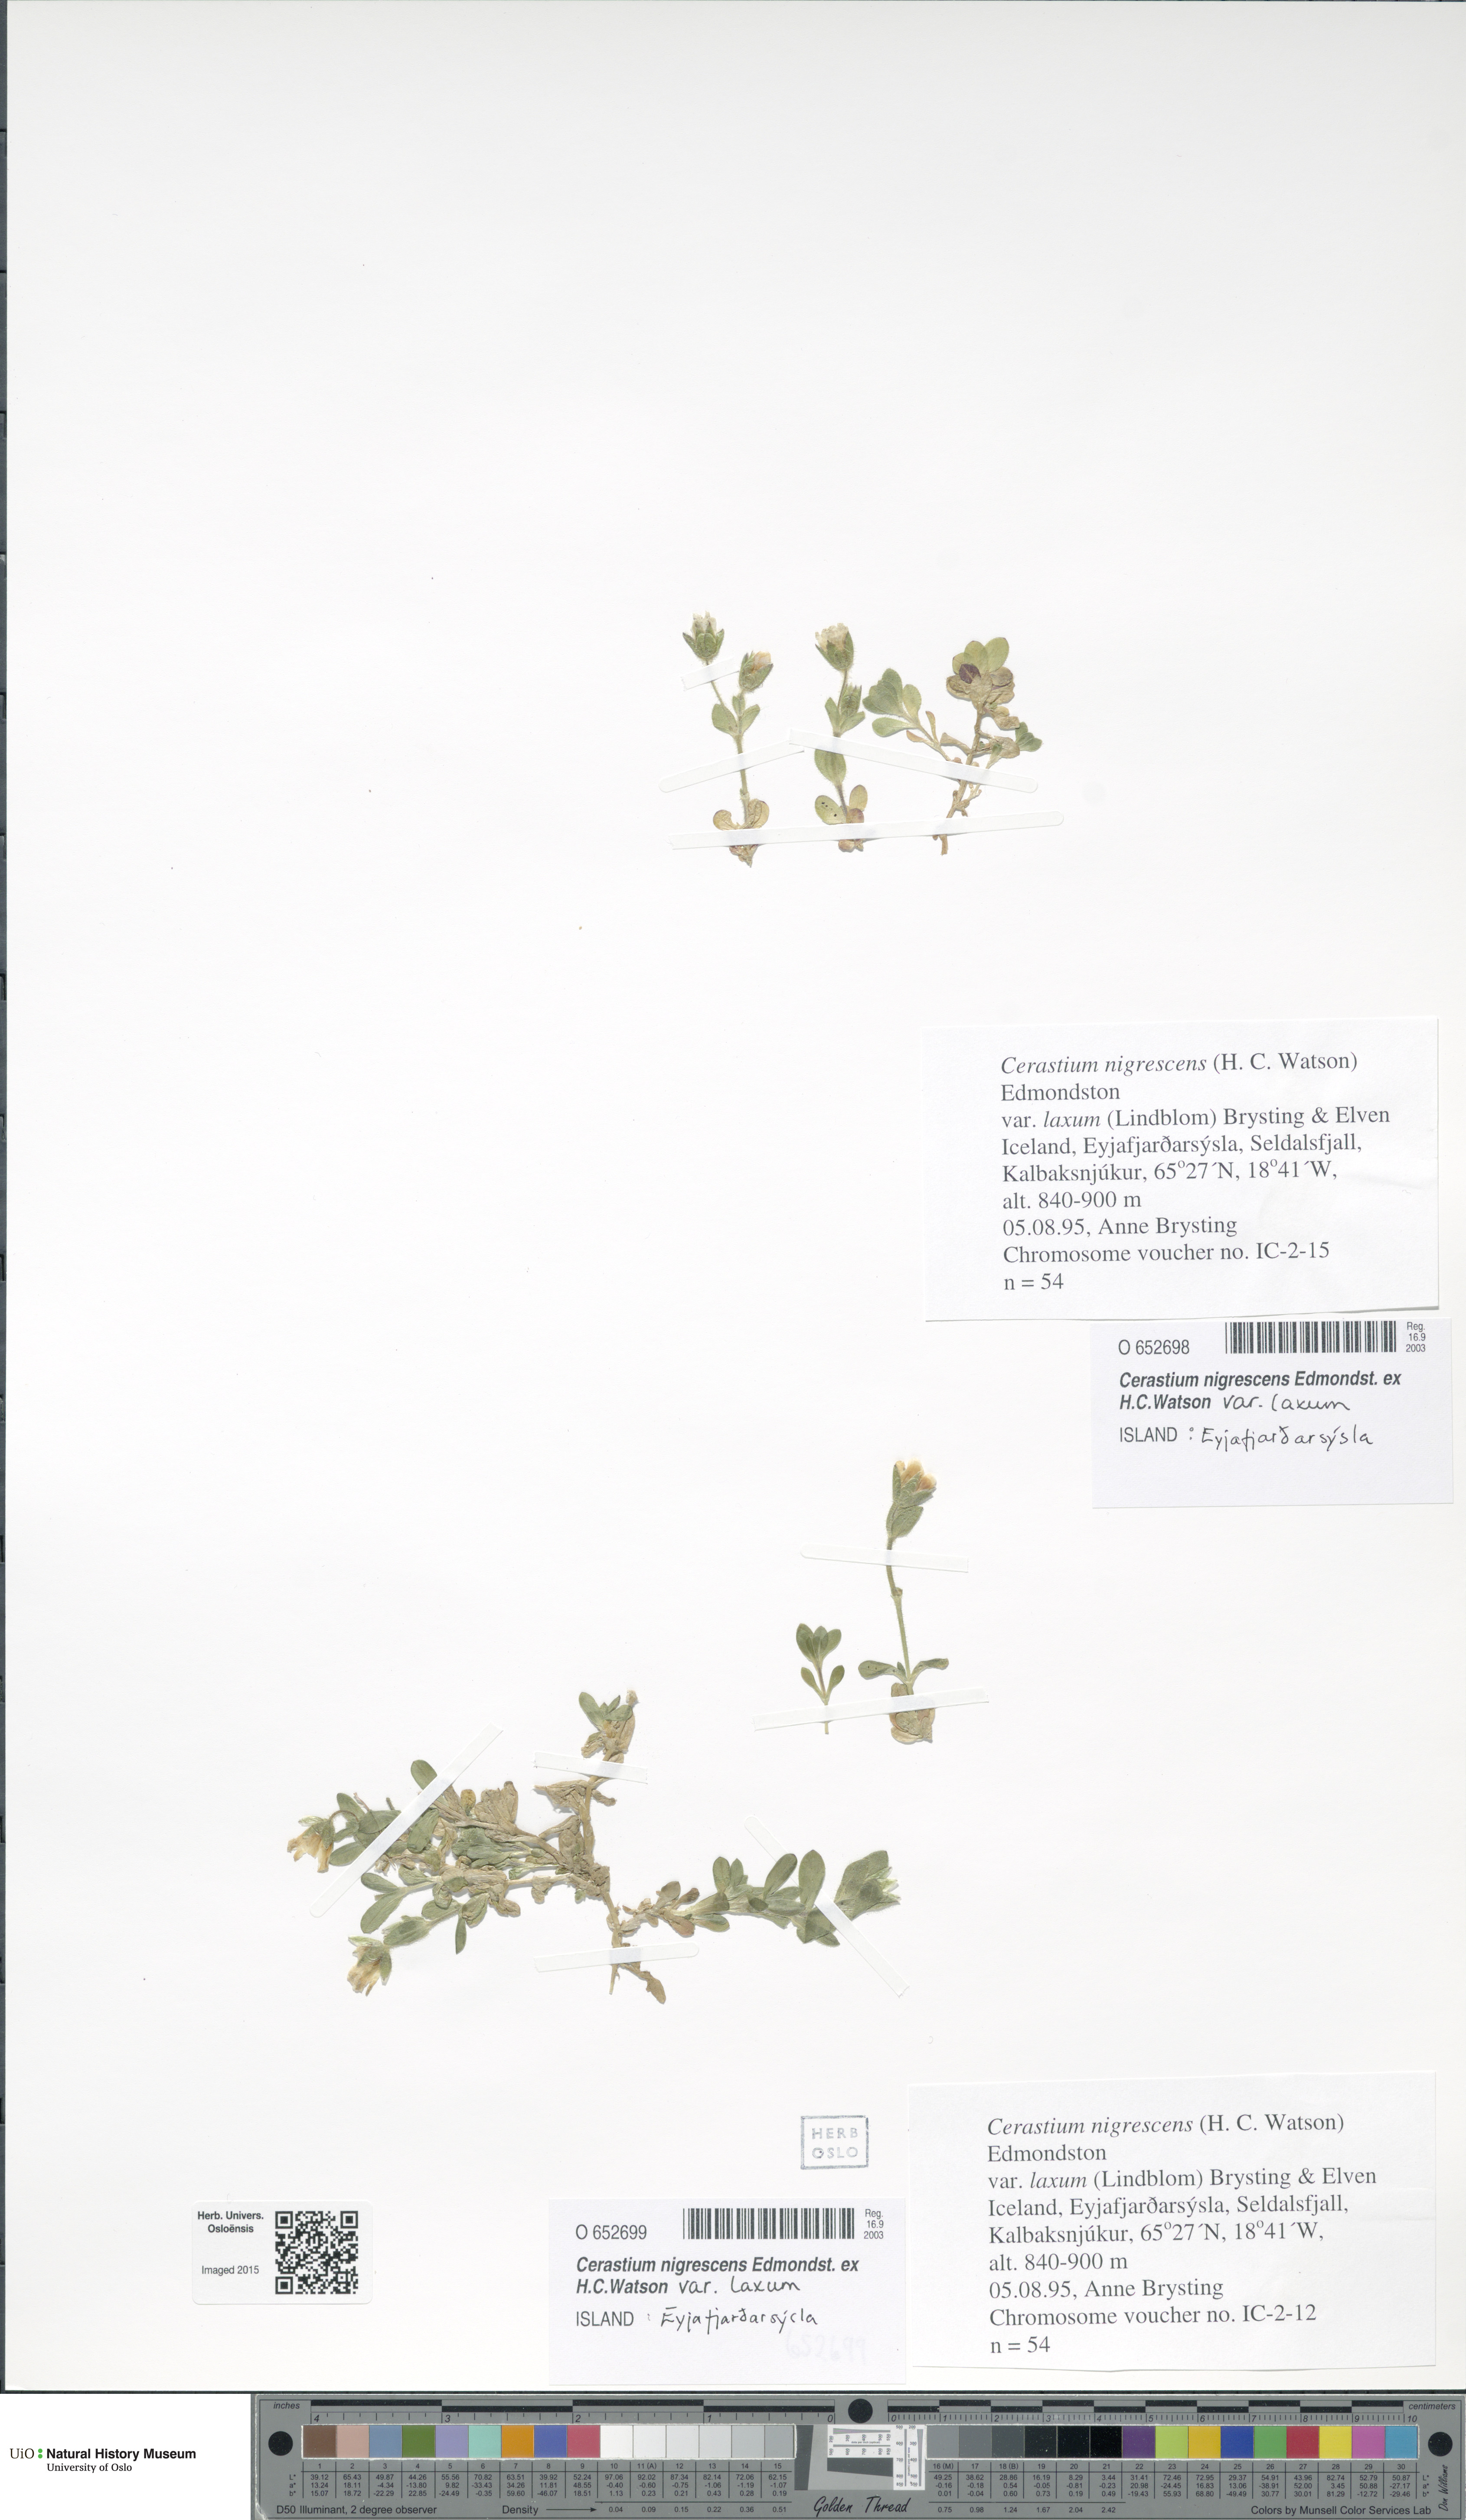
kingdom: Plantae
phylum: Tracheophyta
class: Magnoliopsida
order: Caryophyllales
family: Caryophyllaceae
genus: Cerastium
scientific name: Cerastium nigrescens
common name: Shetland mouse-ear
